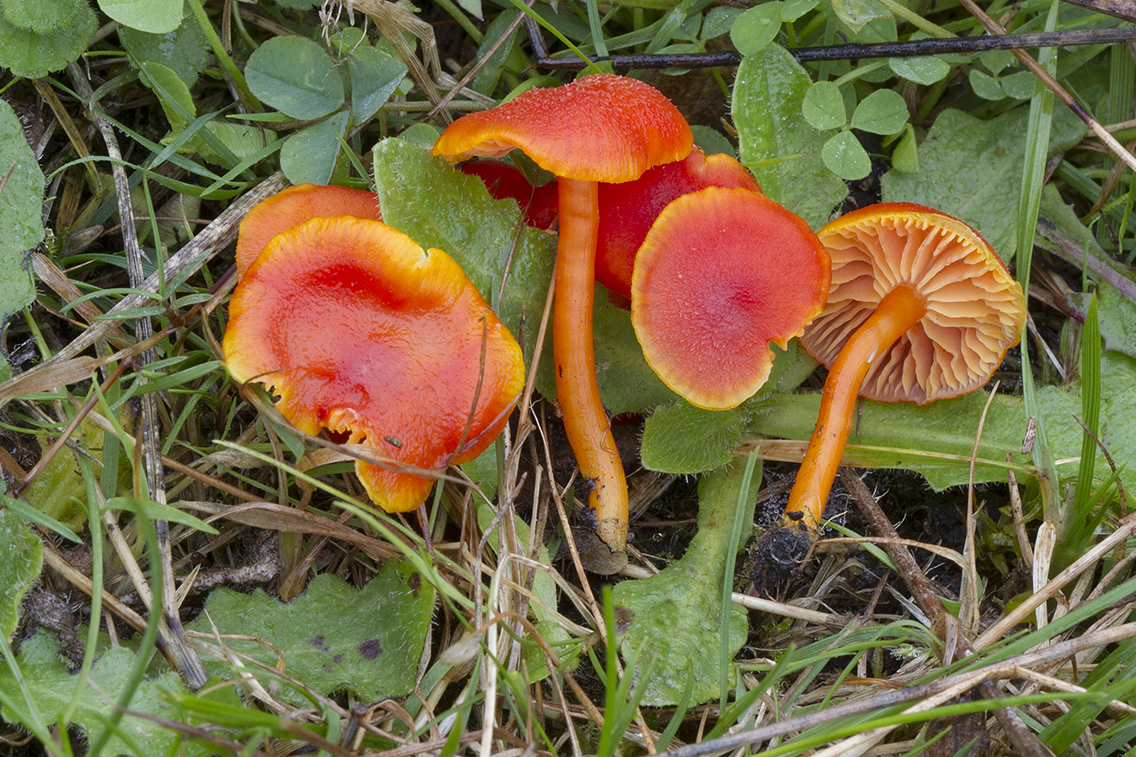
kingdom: Fungi
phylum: Basidiomycota
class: Agaricomycetes
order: Agaricales
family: Hygrophoraceae
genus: Hygrocybe
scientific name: Hygrocybe miniata
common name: mønje-vokshat
